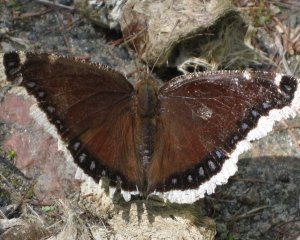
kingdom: Animalia
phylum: Arthropoda
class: Insecta
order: Lepidoptera
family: Nymphalidae
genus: Nymphalis
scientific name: Nymphalis antiopa
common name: Mourning Cloak
